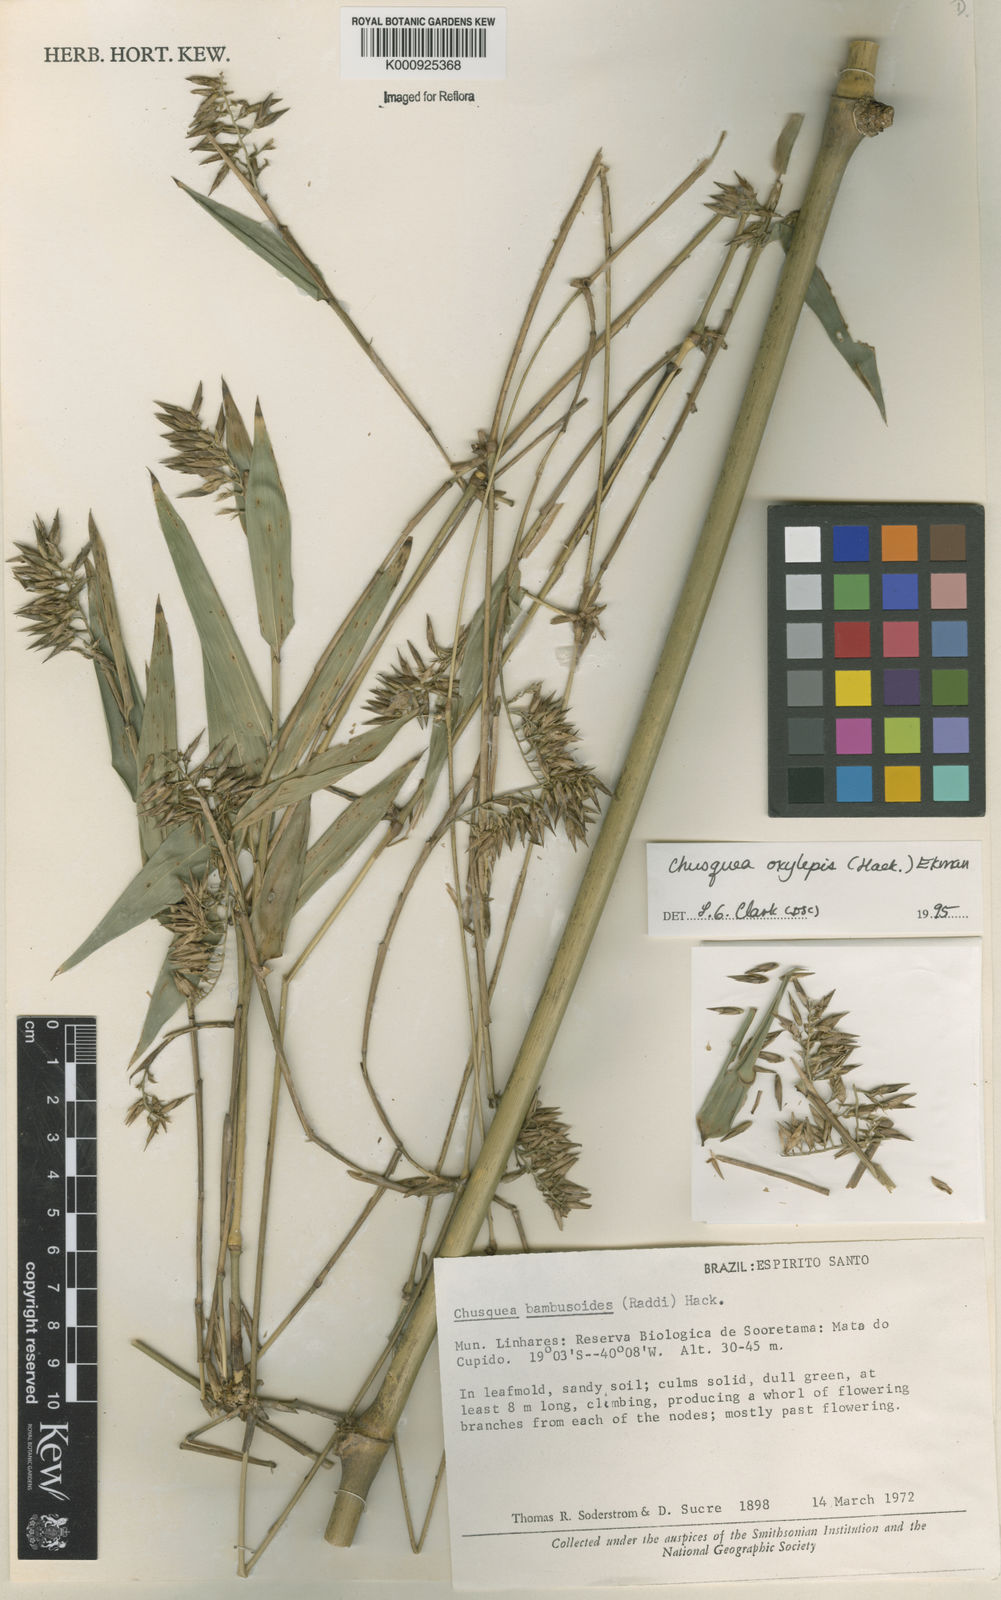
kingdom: Plantae
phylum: Tracheophyta
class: Liliopsida
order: Poales
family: Poaceae
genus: Chusquea
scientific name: Chusquea oxylepis
